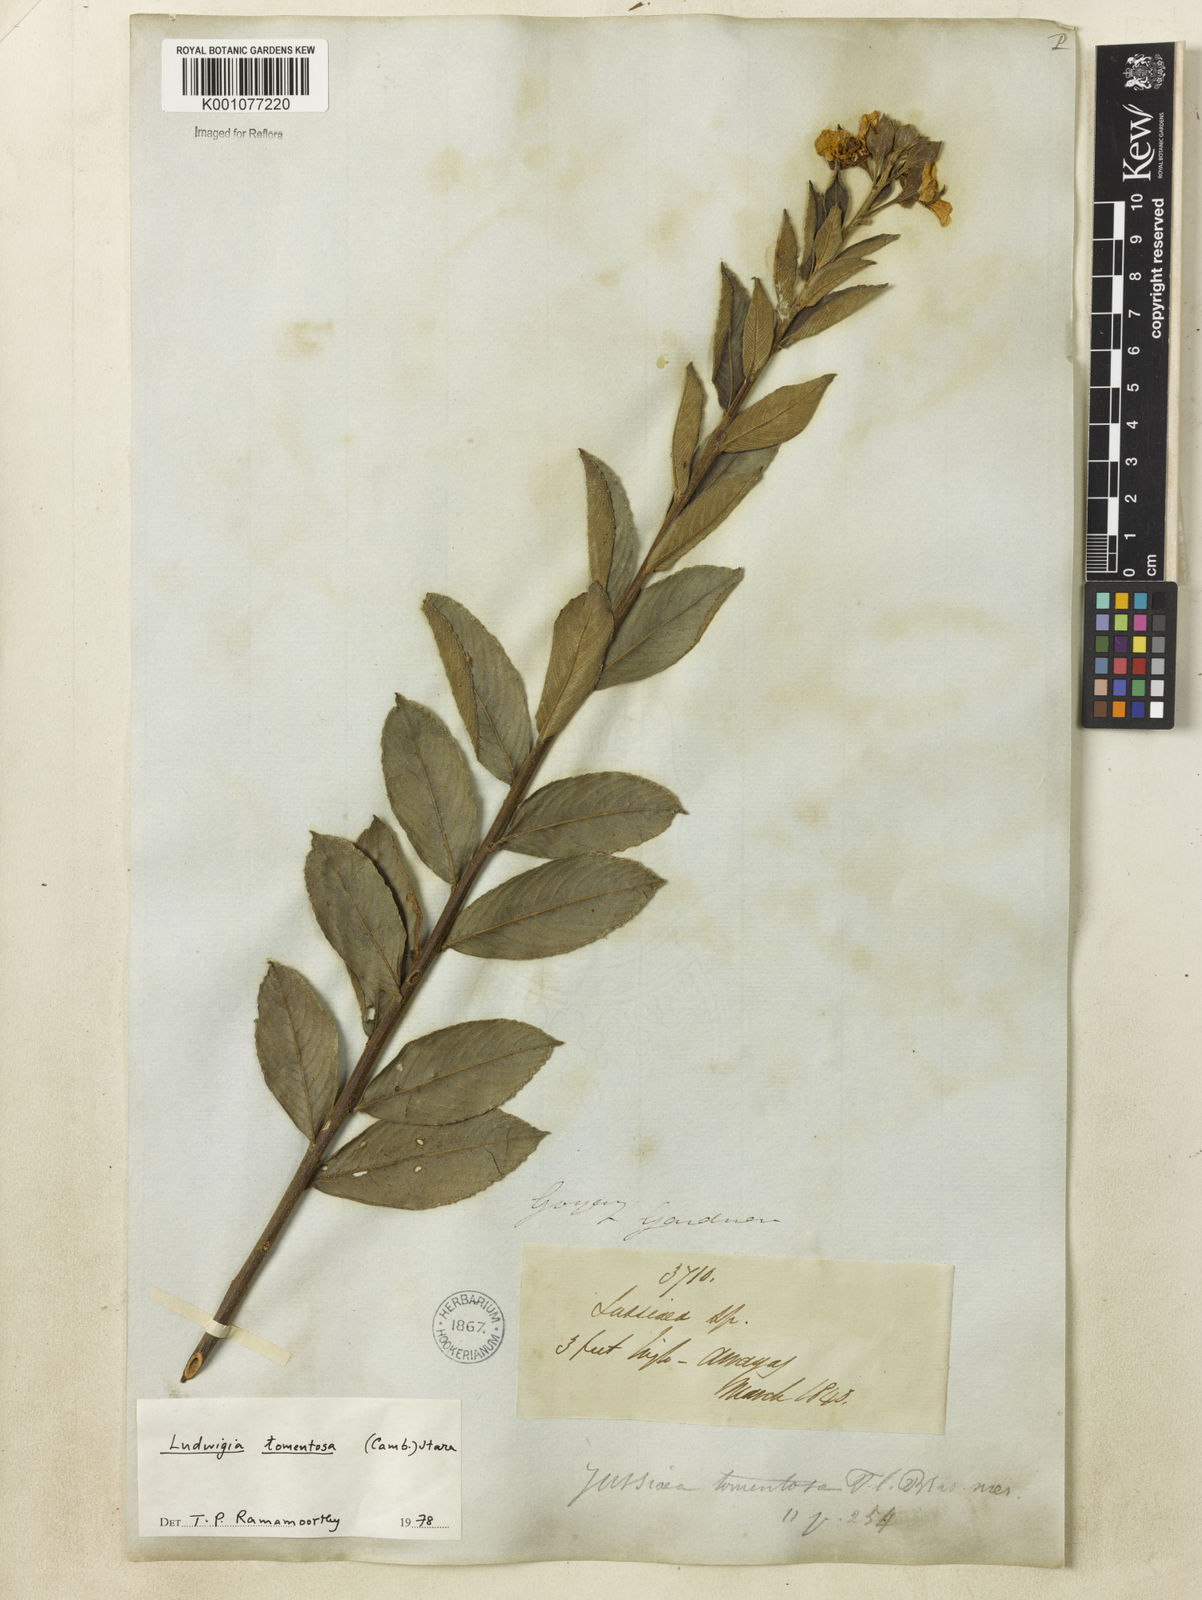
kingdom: Plantae
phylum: Tracheophyta
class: Magnoliopsida
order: Myrtales
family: Onagraceae
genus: Ludwigia
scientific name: Ludwigia tomentosa
